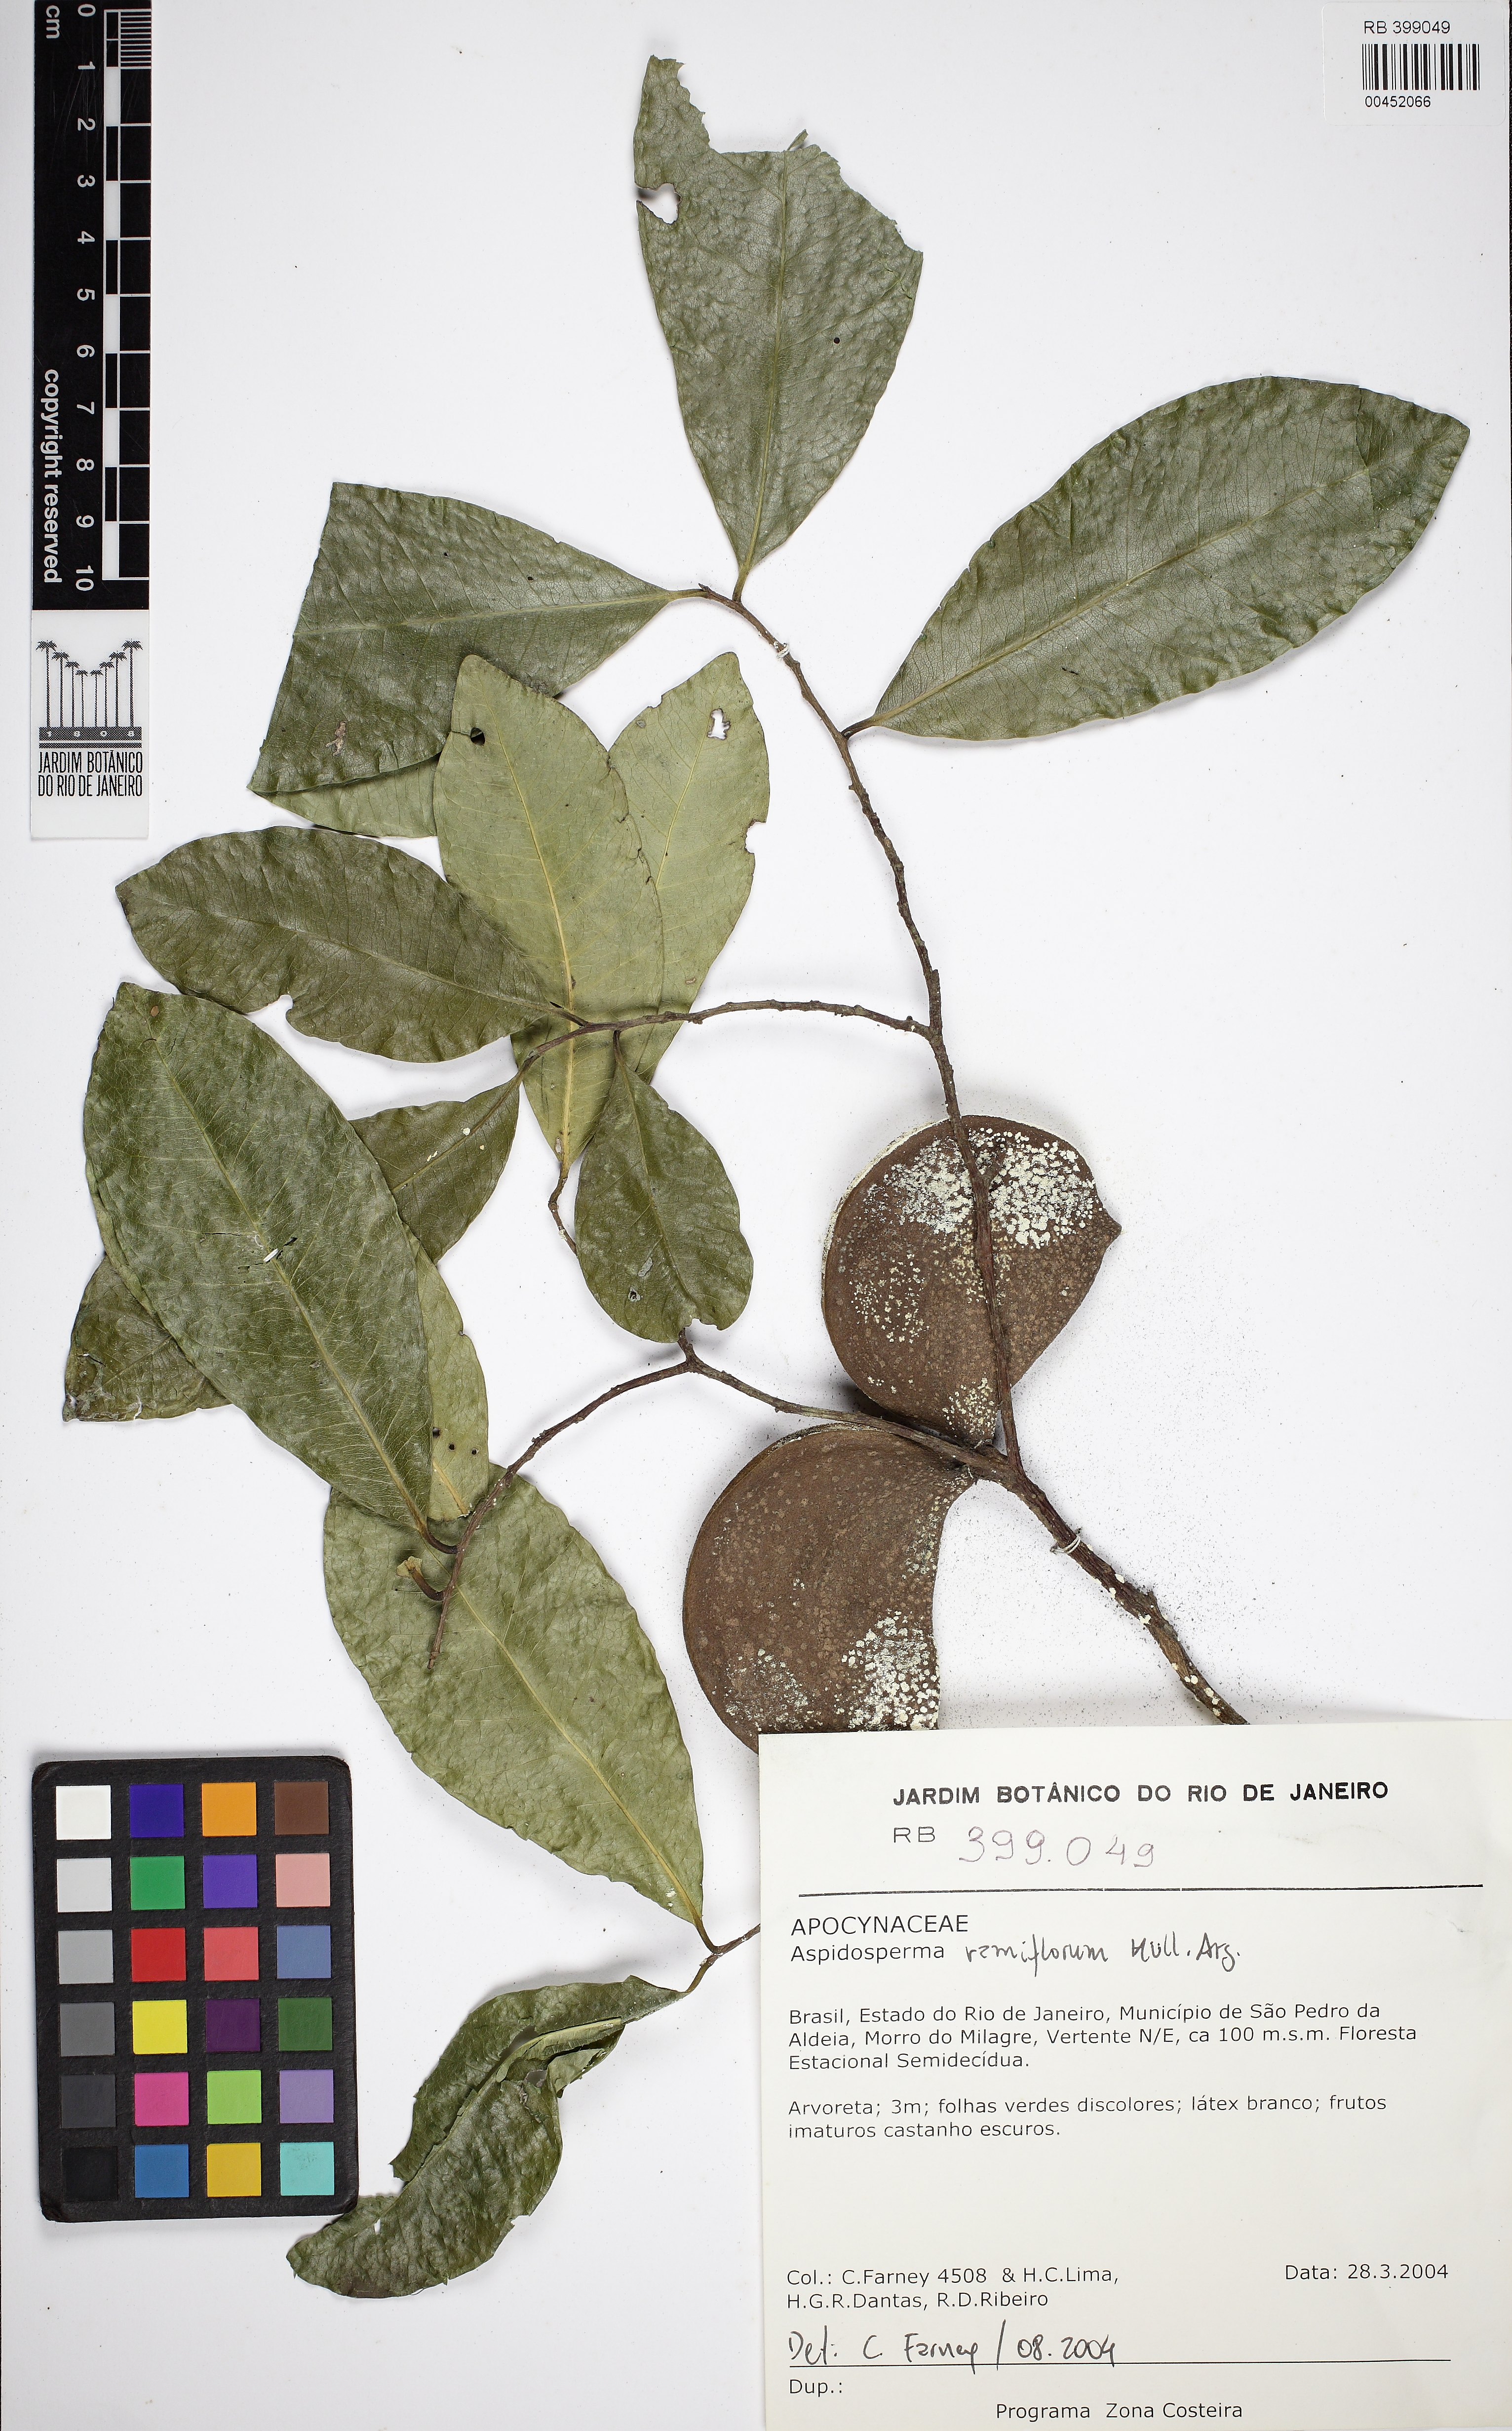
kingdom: Plantae
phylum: Tracheophyta
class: Magnoliopsida
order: Gentianales
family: Apocynaceae
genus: Aspidosperma
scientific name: Aspidosperma ramiflorum
